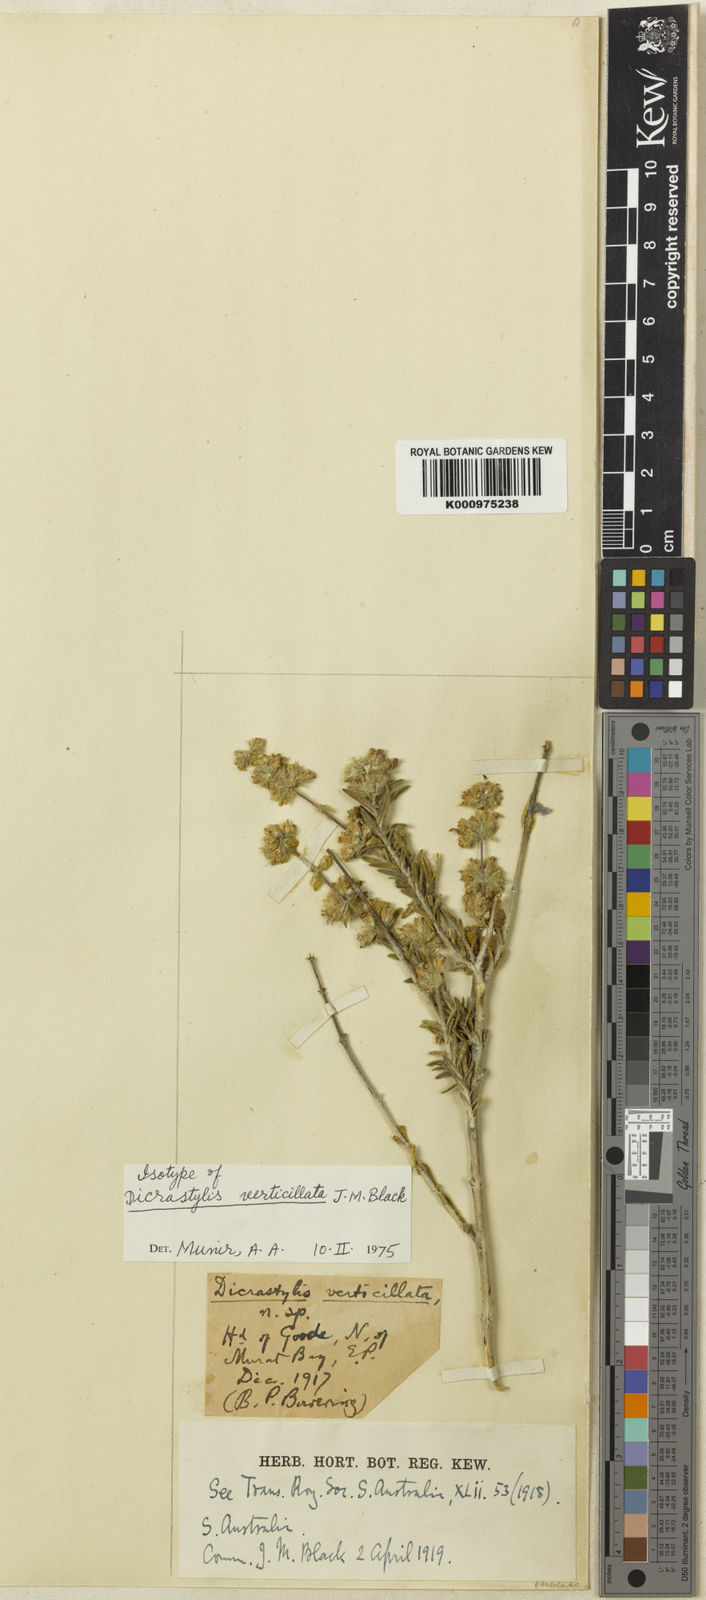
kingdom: Plantae
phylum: Tracheophyta
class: Magnoliopsida
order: Lamiales
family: Lamiaceae
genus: Dicrastylis
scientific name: Dicrastylis verticillata
